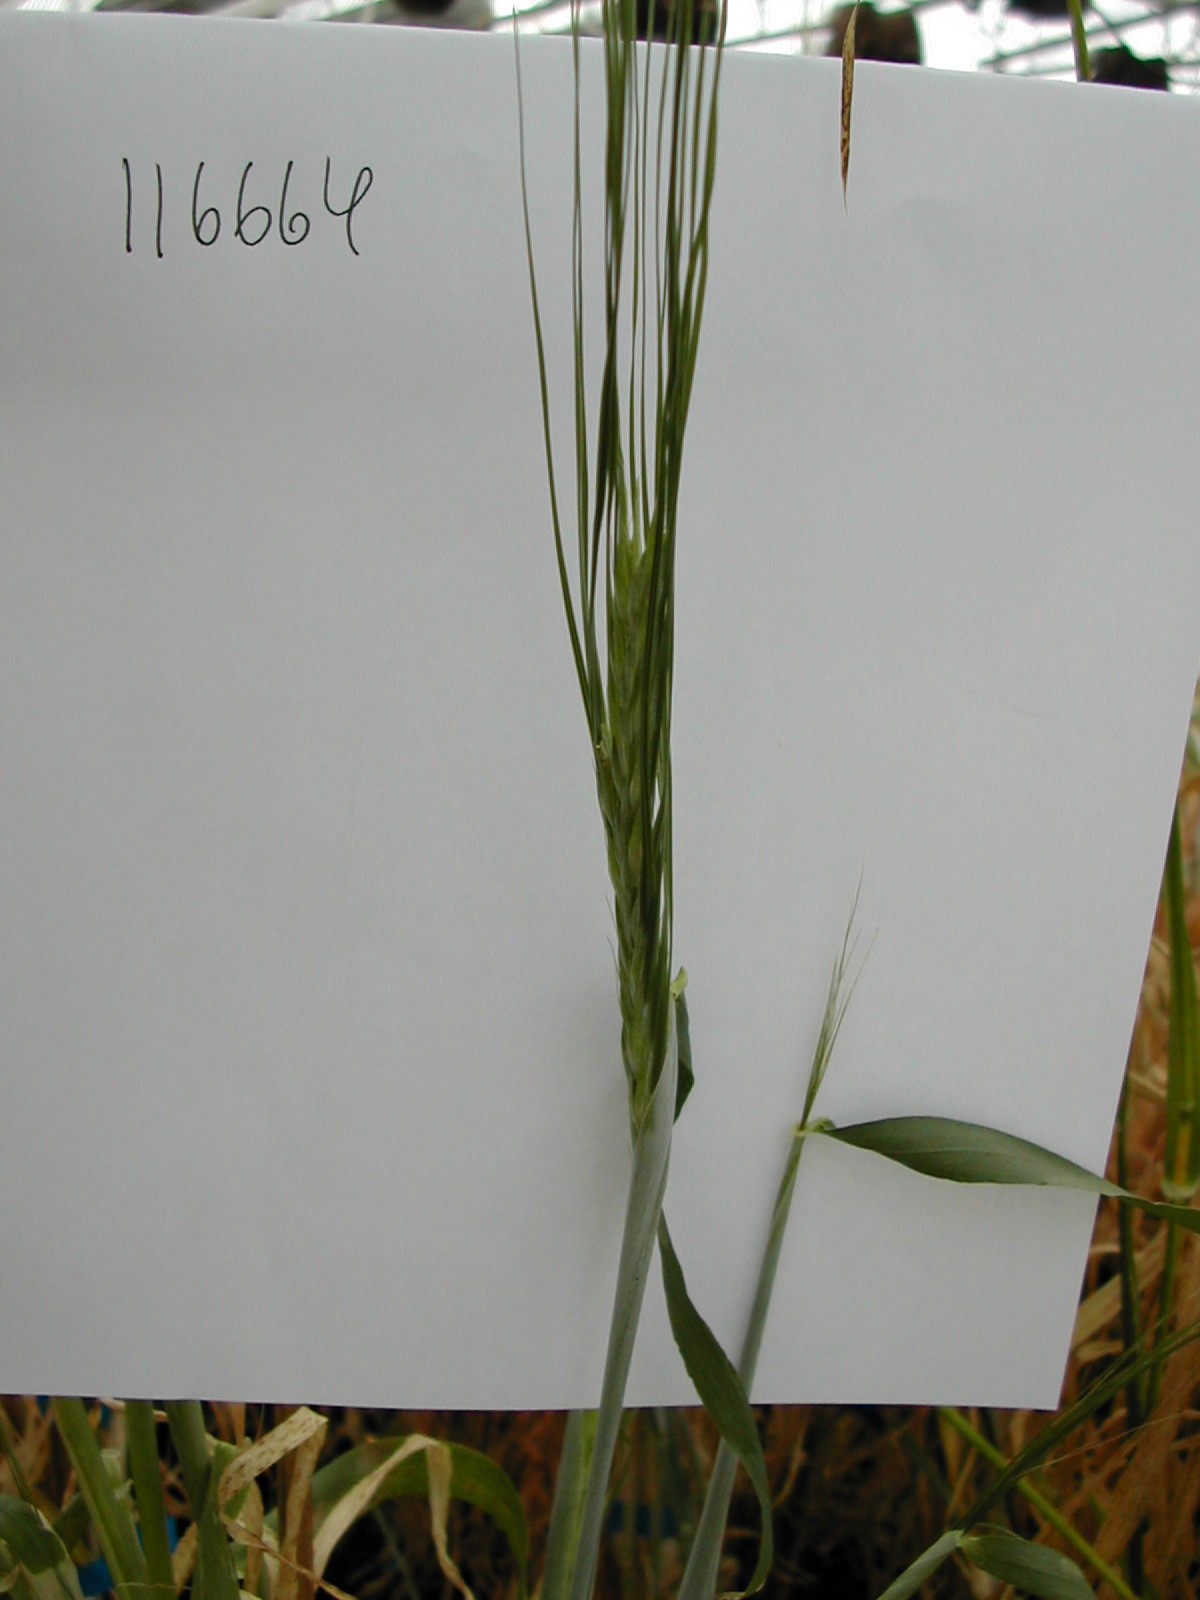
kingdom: Plantae
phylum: Tracheophyta
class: Liliopsida
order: Poales
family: Poaceae
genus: Hordeum
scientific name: Hordeum vulgare
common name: Common barley
